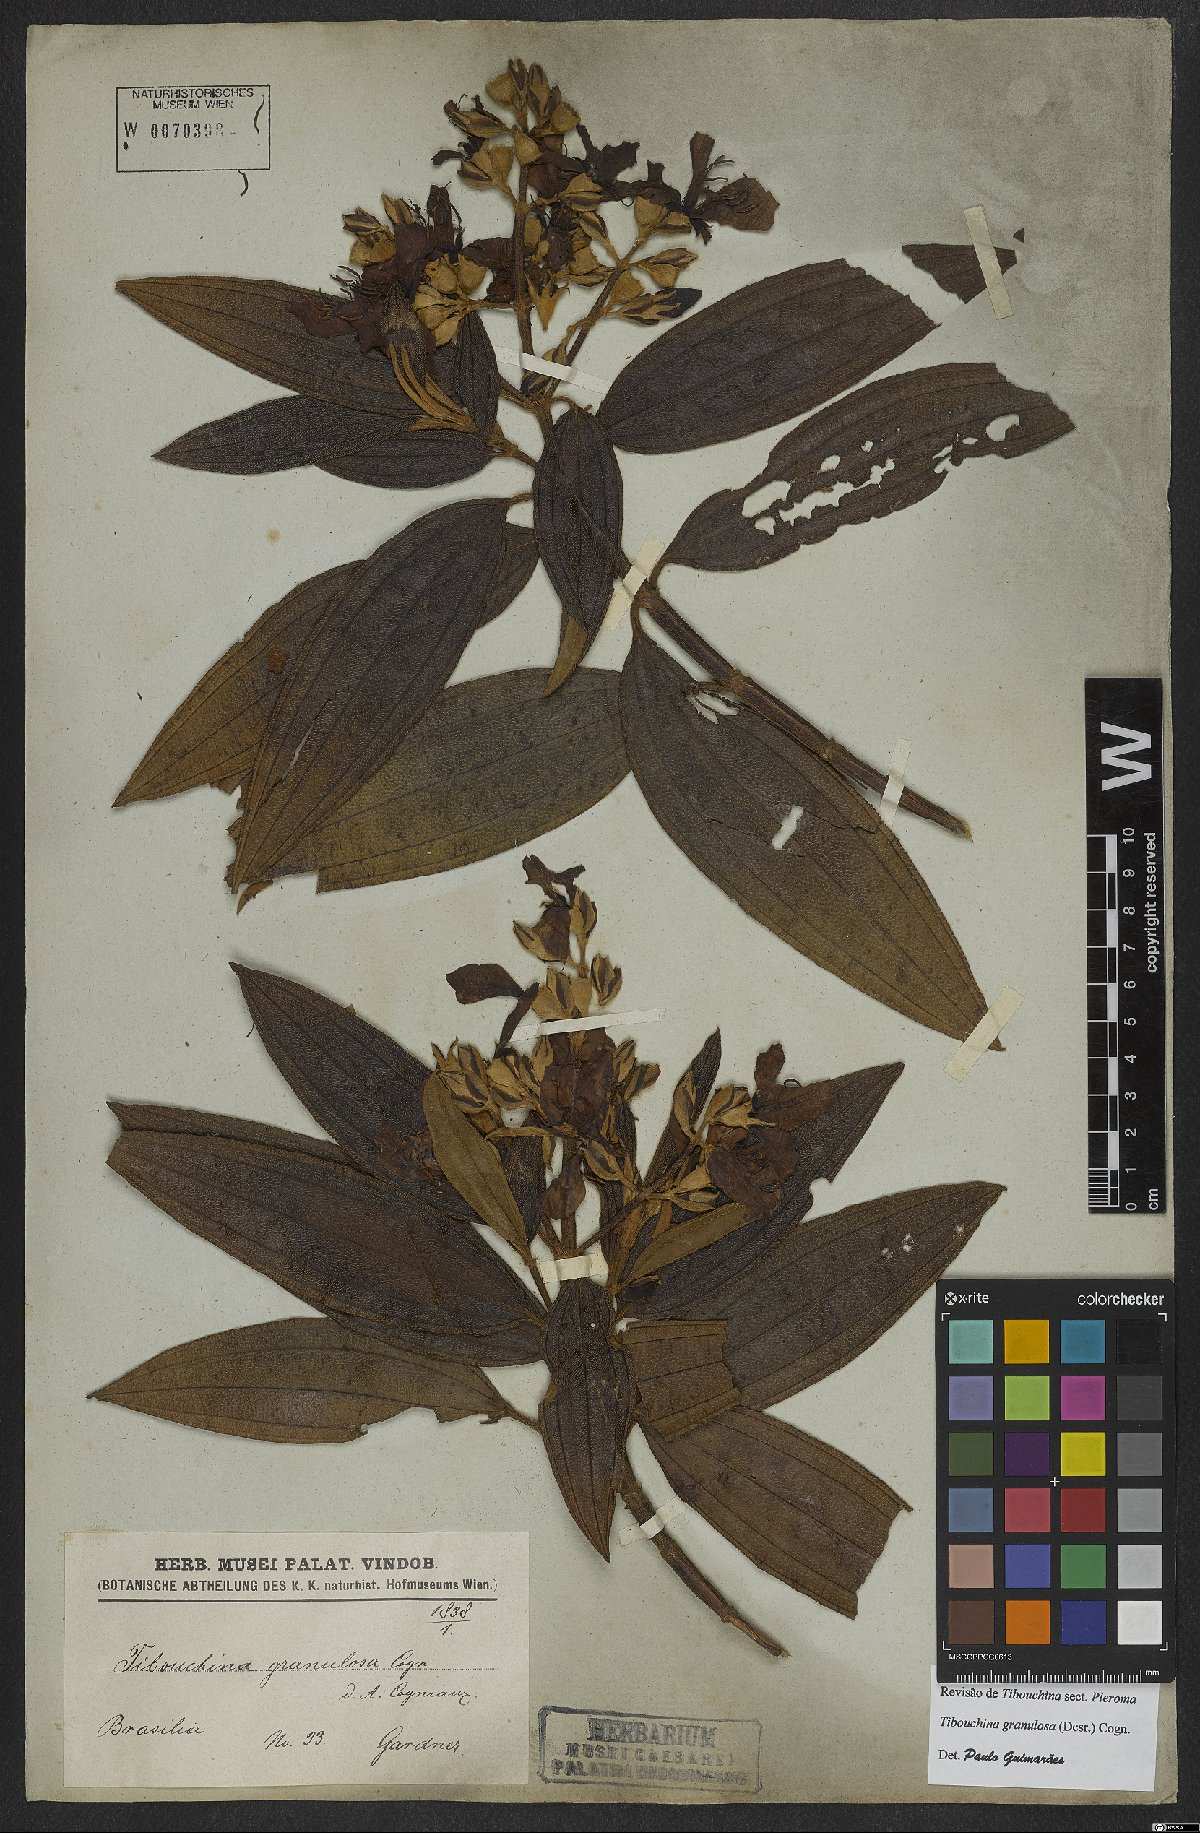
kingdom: Plantae
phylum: Tracheophyta
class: Magnoliopsida
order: Myrtales
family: Melastomataceae
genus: Pleroma
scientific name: Pleroma granulosum
